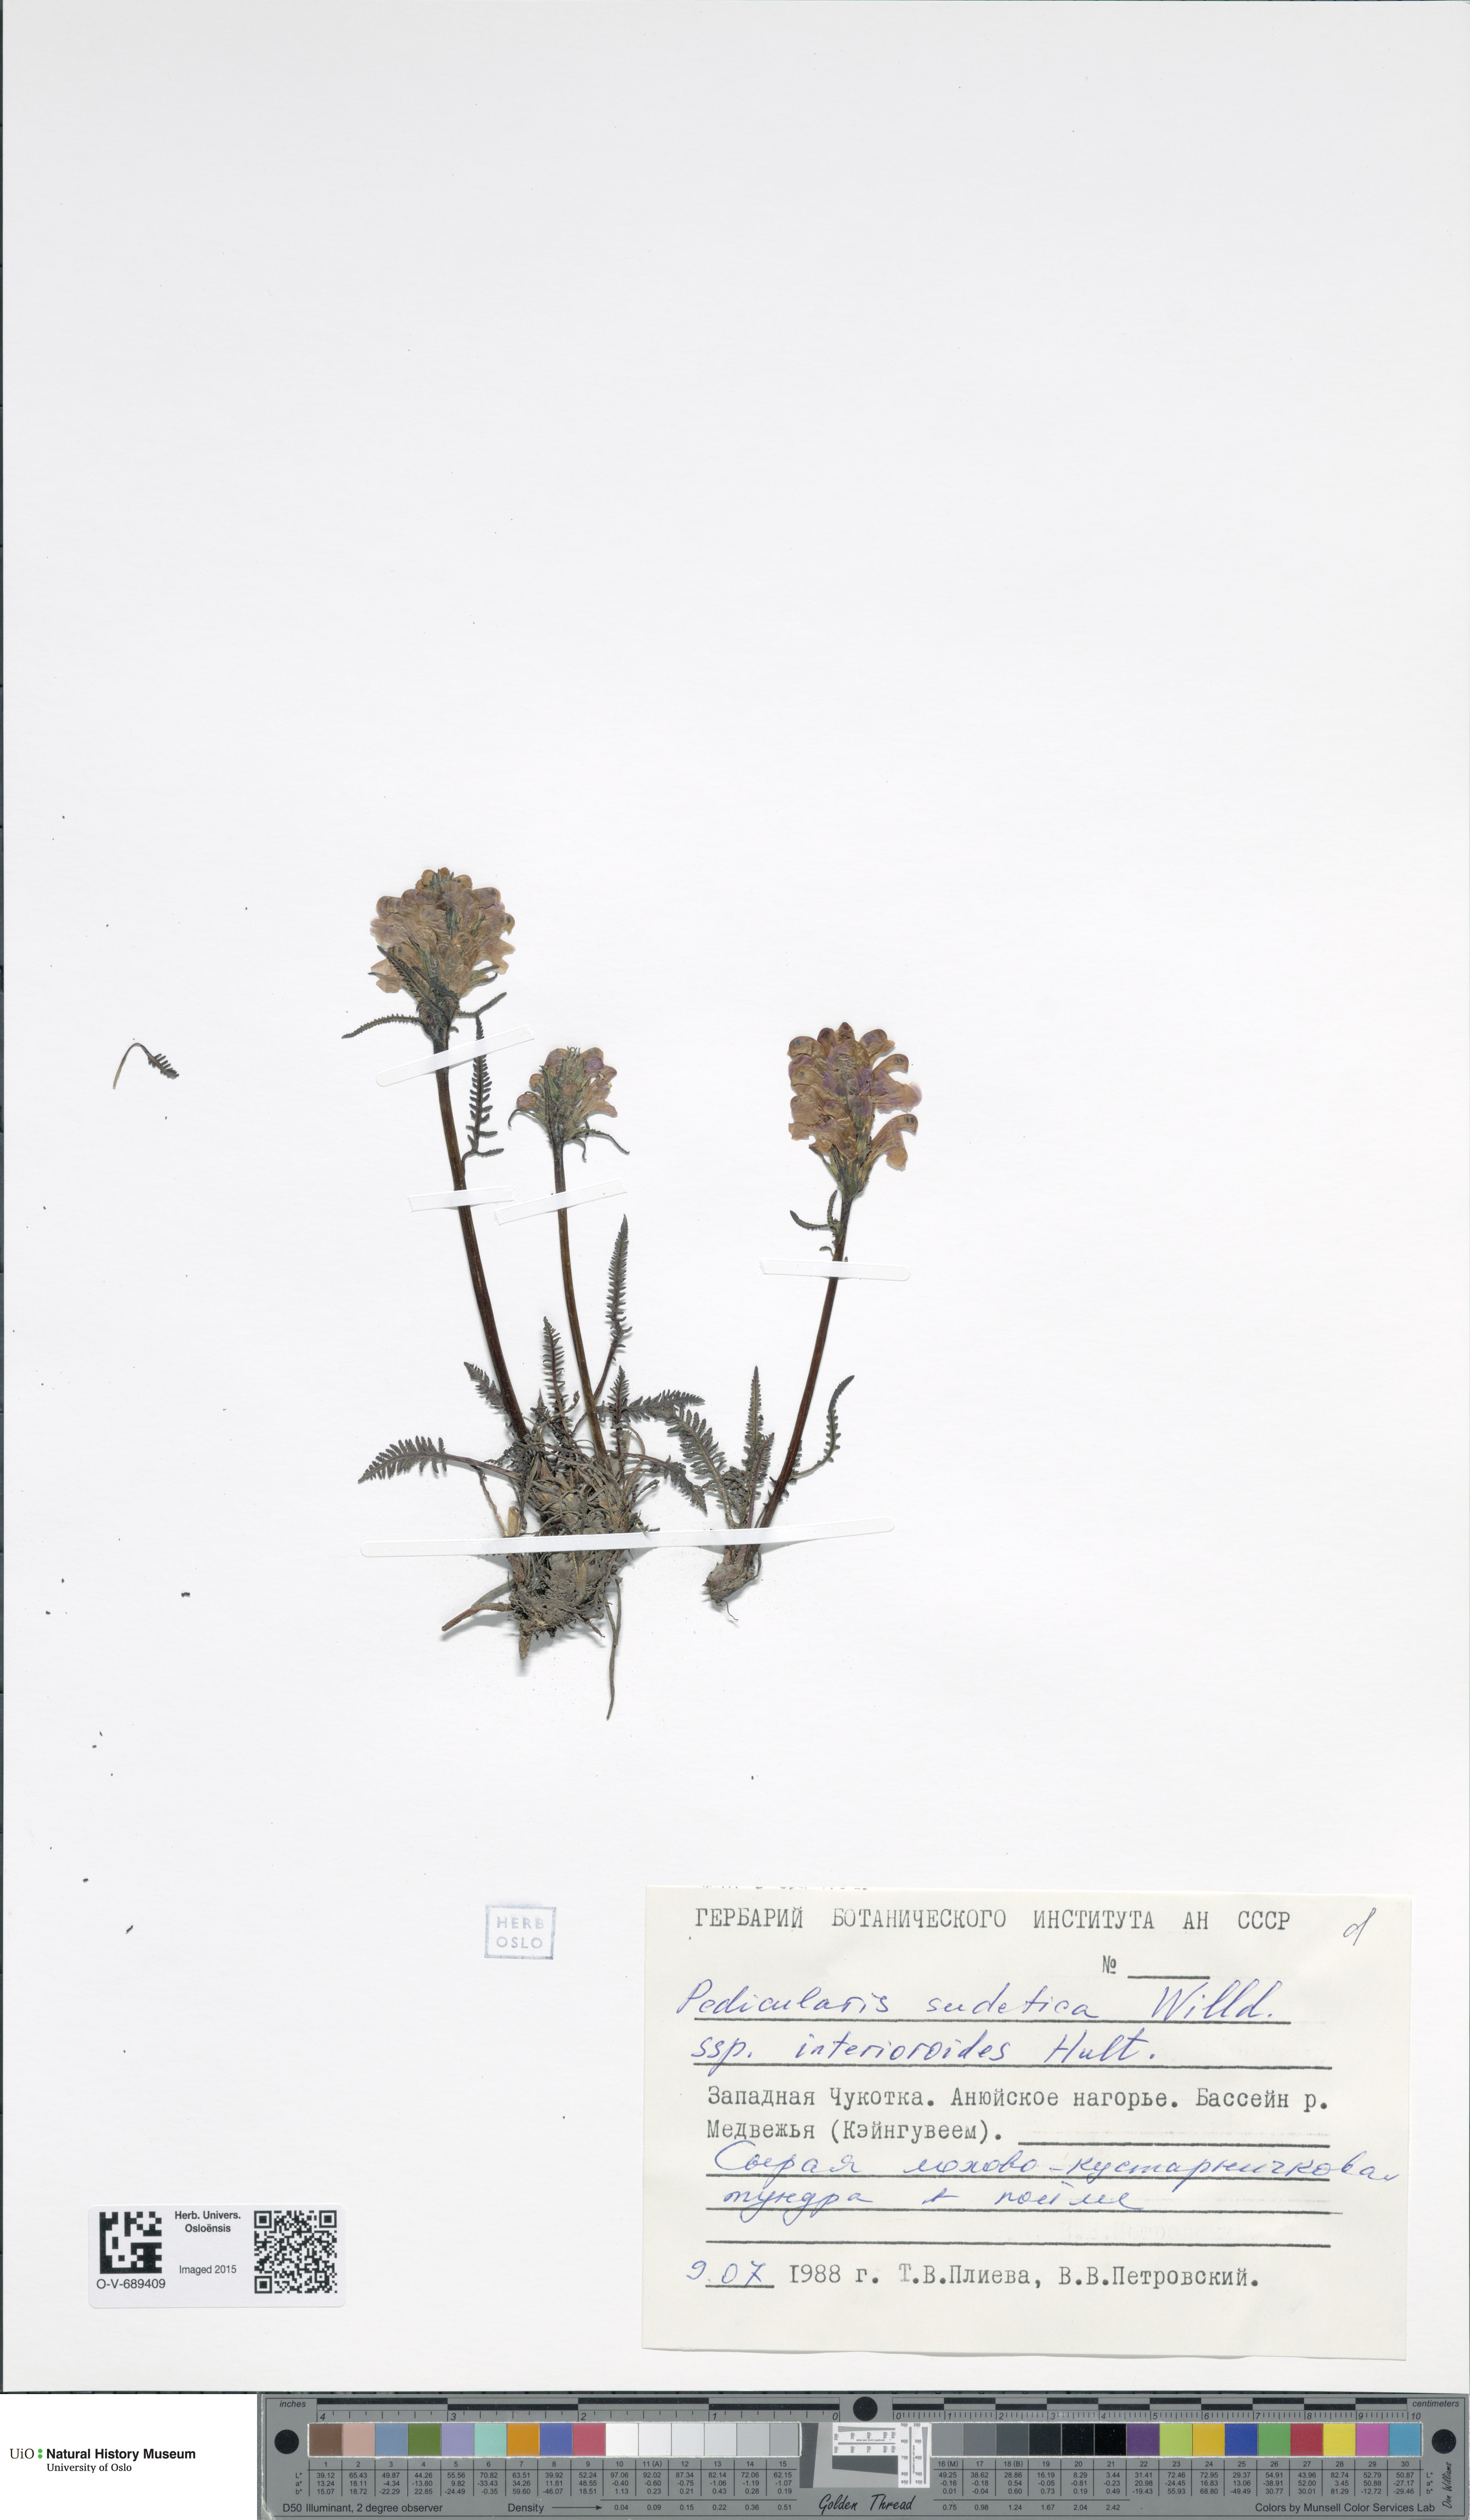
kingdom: Plantae
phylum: Tracheophyta
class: Magnoliopsida
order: Lamiales
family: Orobanchaceae
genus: Pedicularis
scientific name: Pedicularis interior
